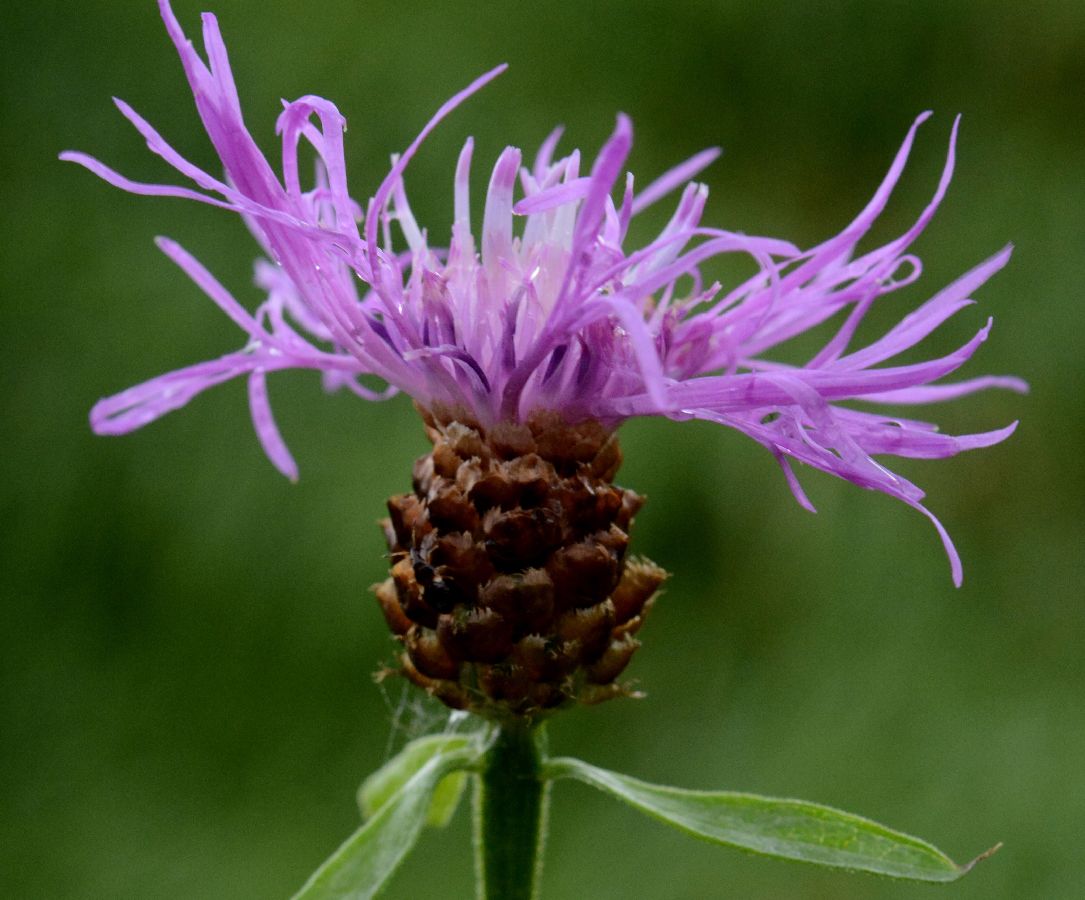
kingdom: Plantae
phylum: Tracheophyta
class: Magnoliopsida
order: Asterales
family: Asteraceae
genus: Centaurea
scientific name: Centaurea jacea
